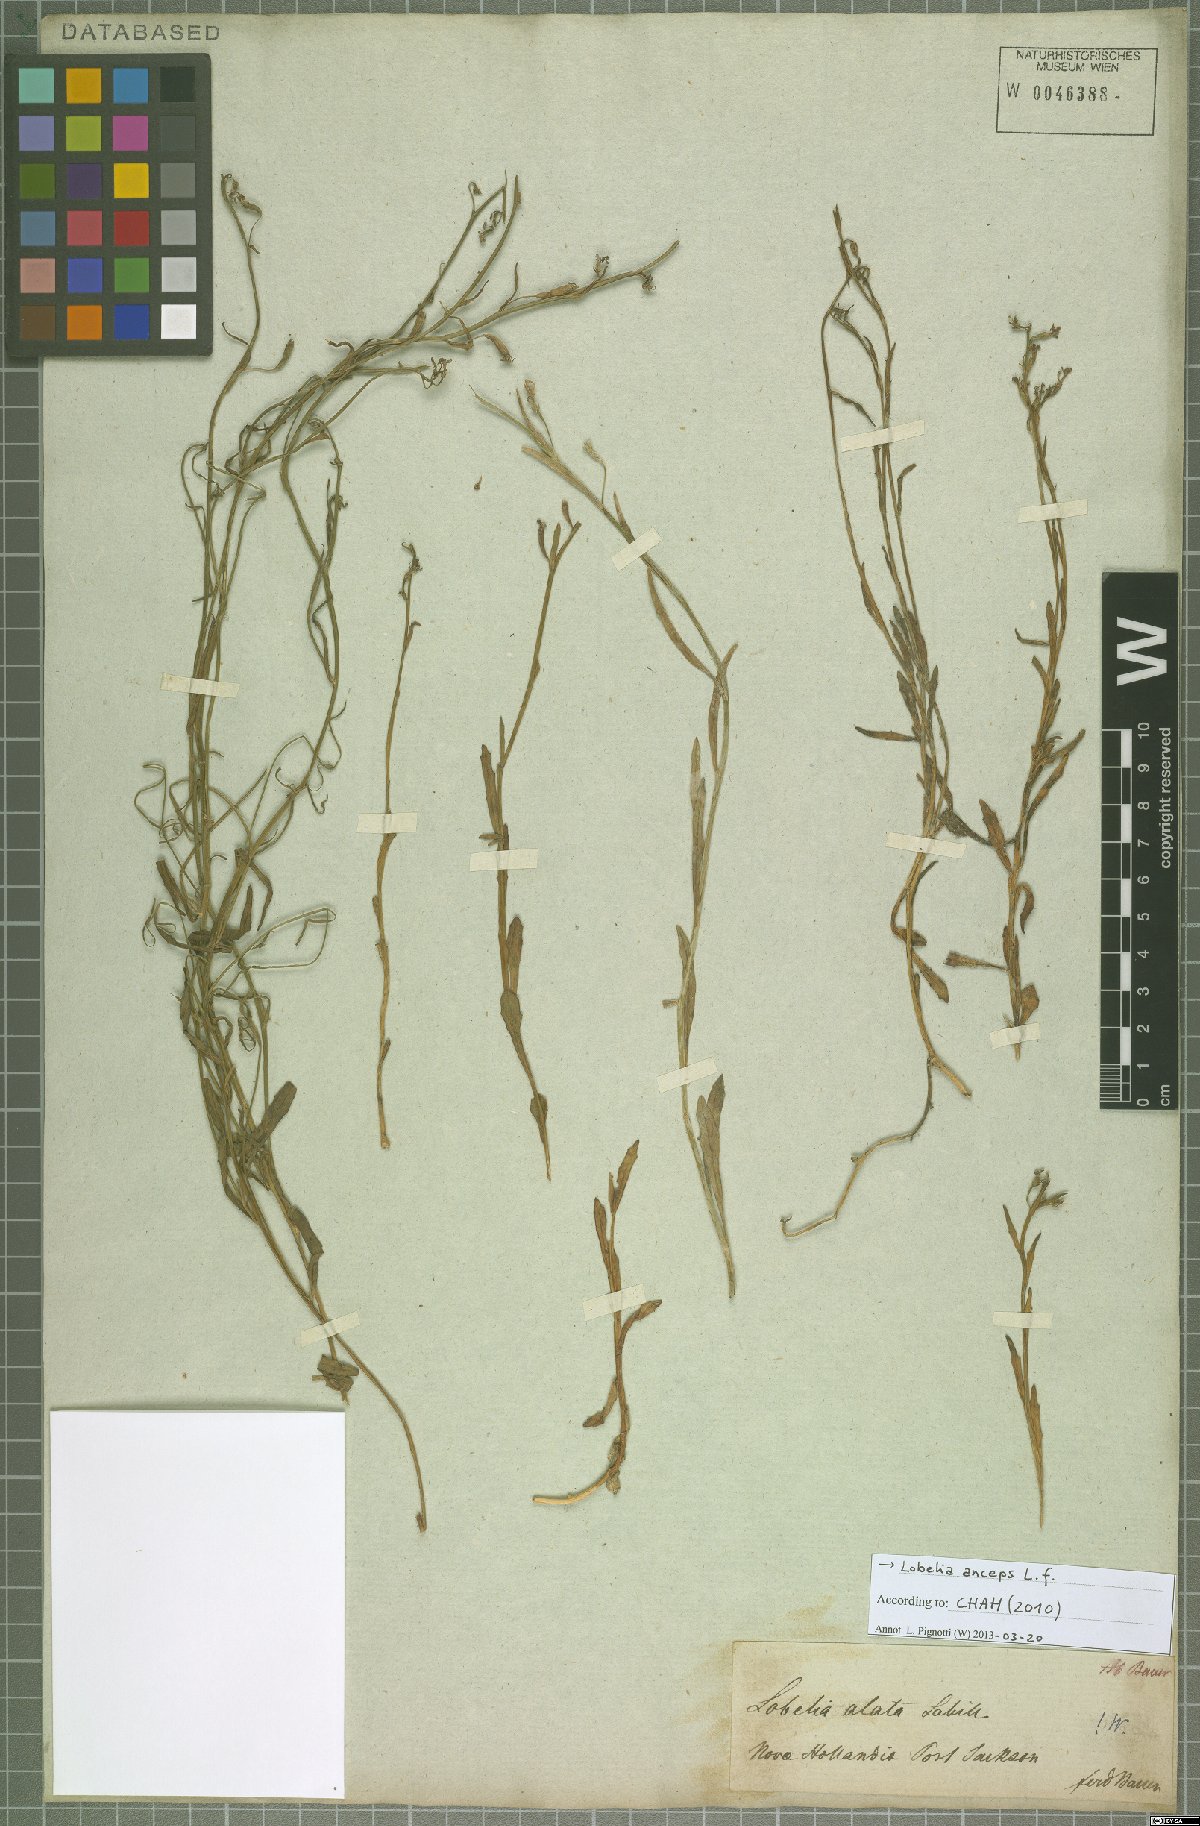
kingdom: Plantae
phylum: Tracheophyta
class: Magnoliopsida
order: Asterales
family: Campanulaceae
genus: Lobelia
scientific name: Lobelia anceps
